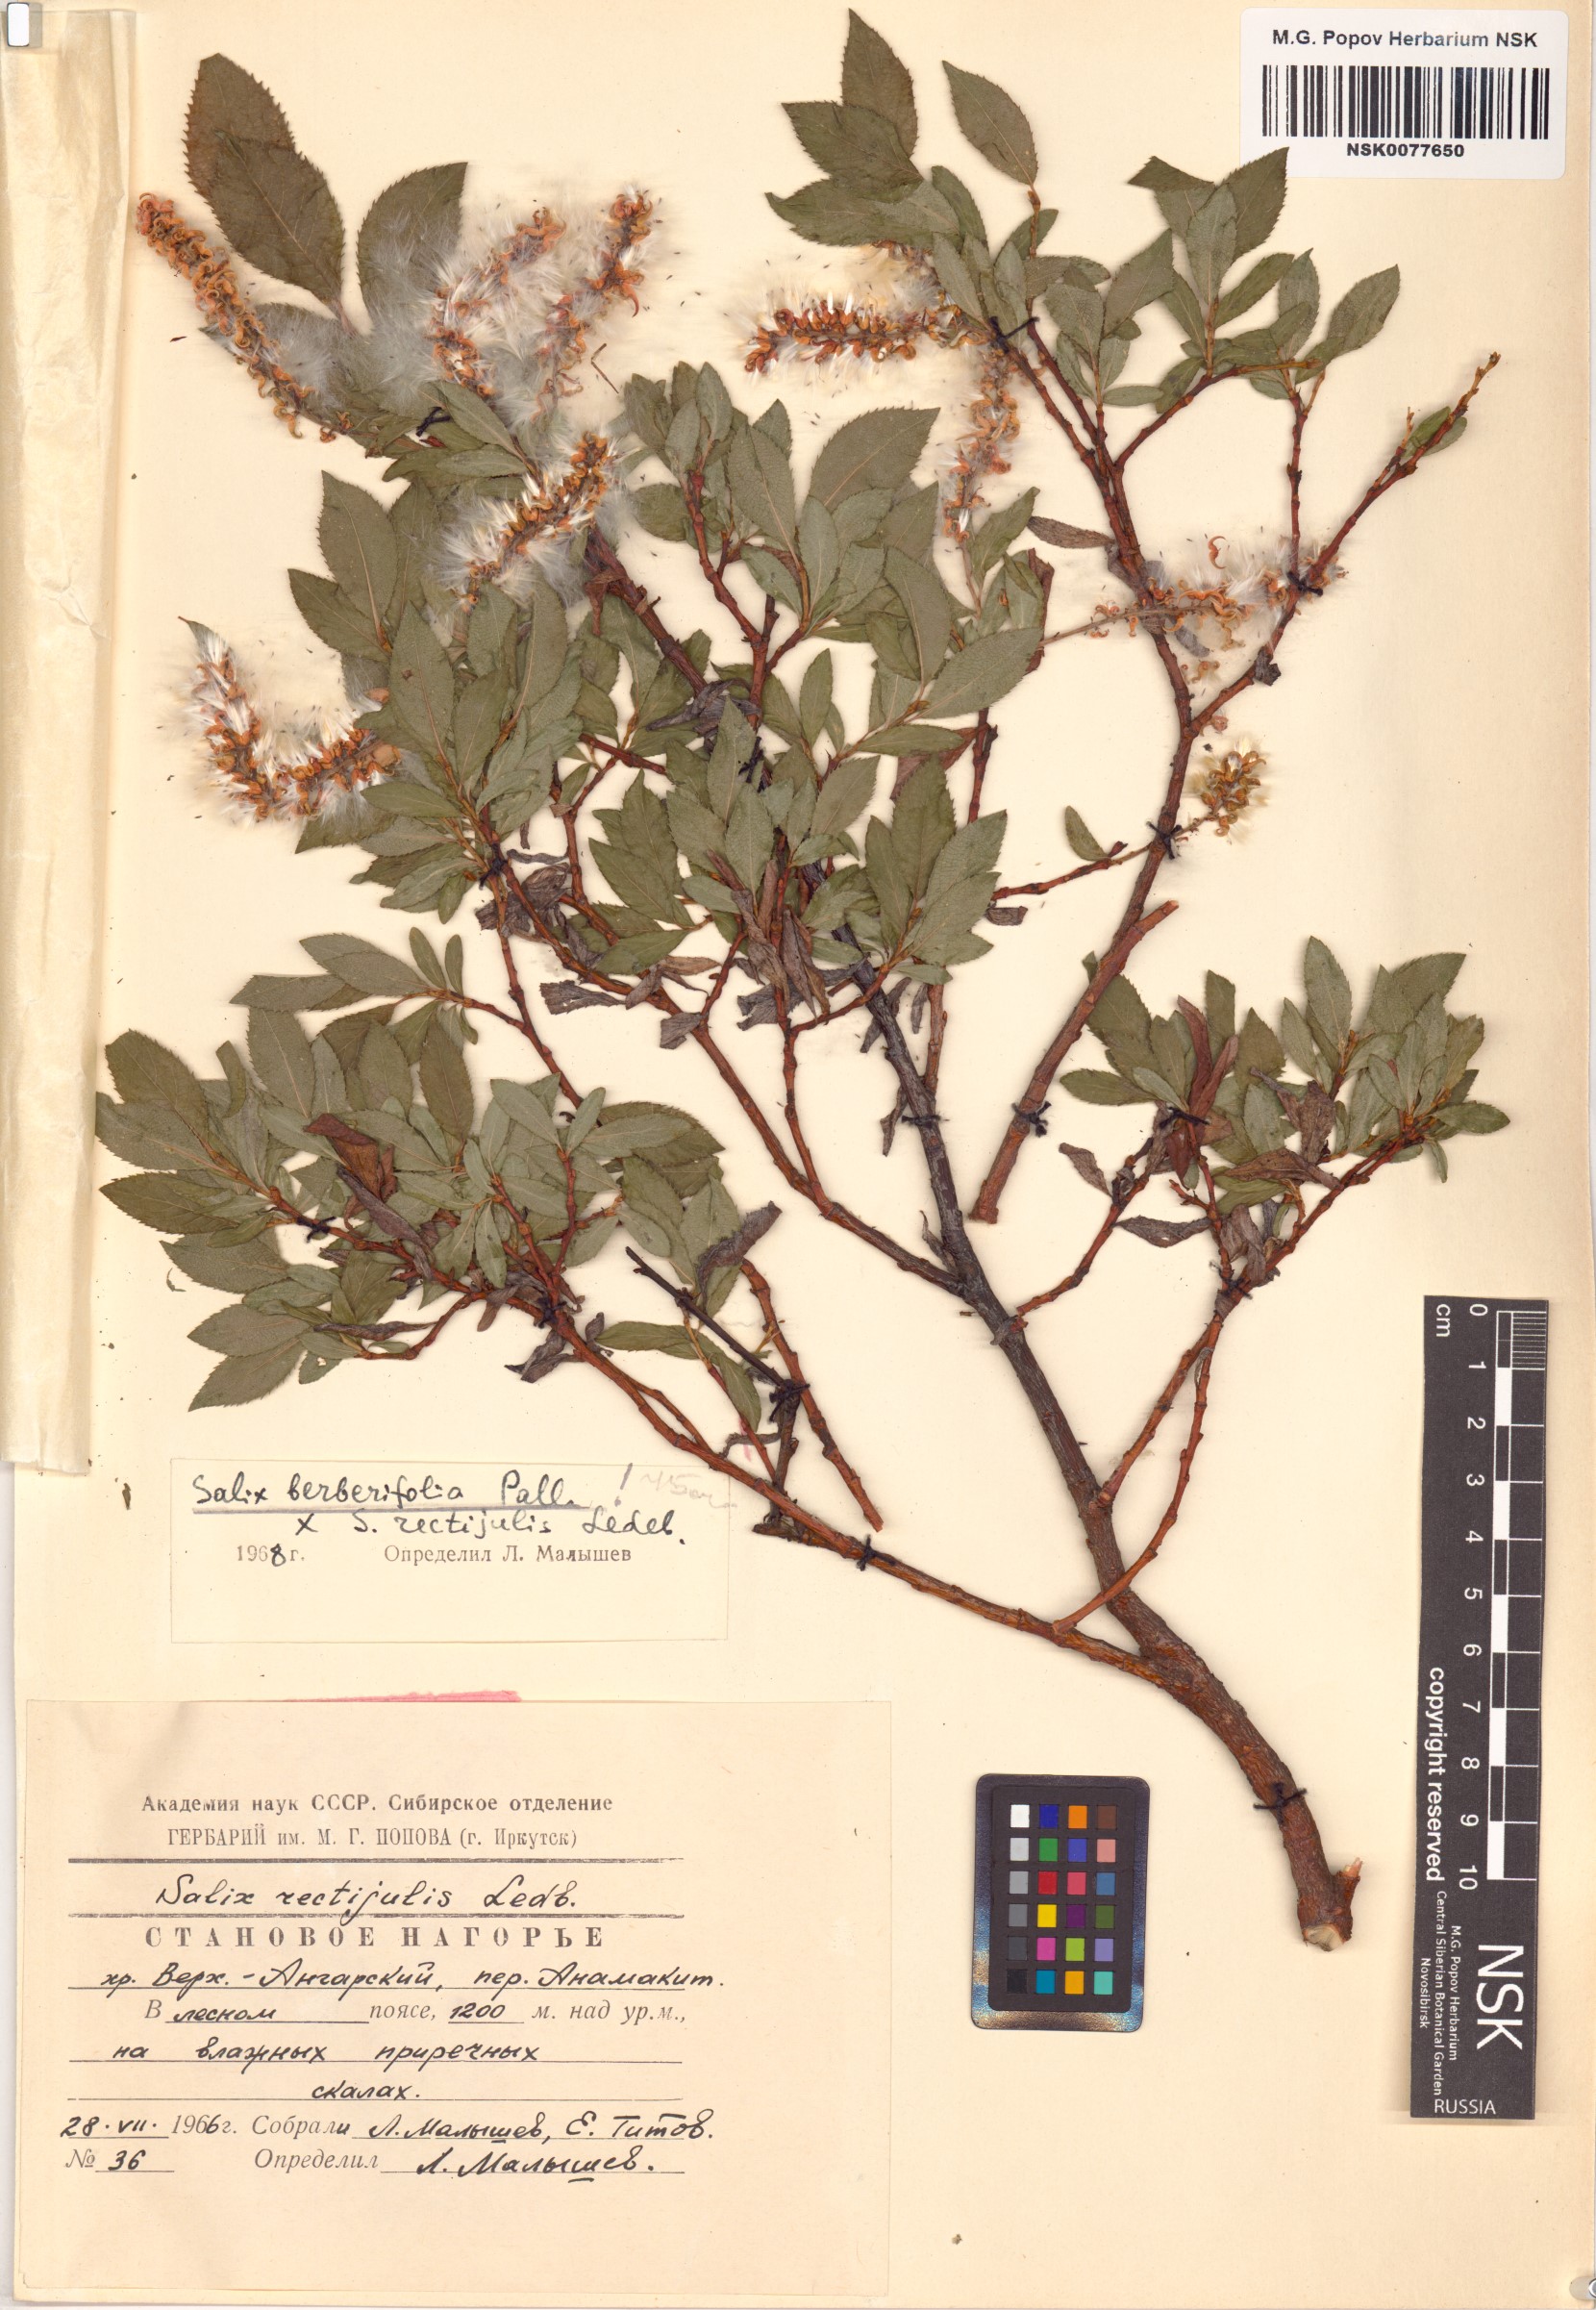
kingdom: Plantae
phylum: Tracheophyta
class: Magnoliopsida
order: Malpighiales
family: Salicaceae
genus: Salix
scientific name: Salix
